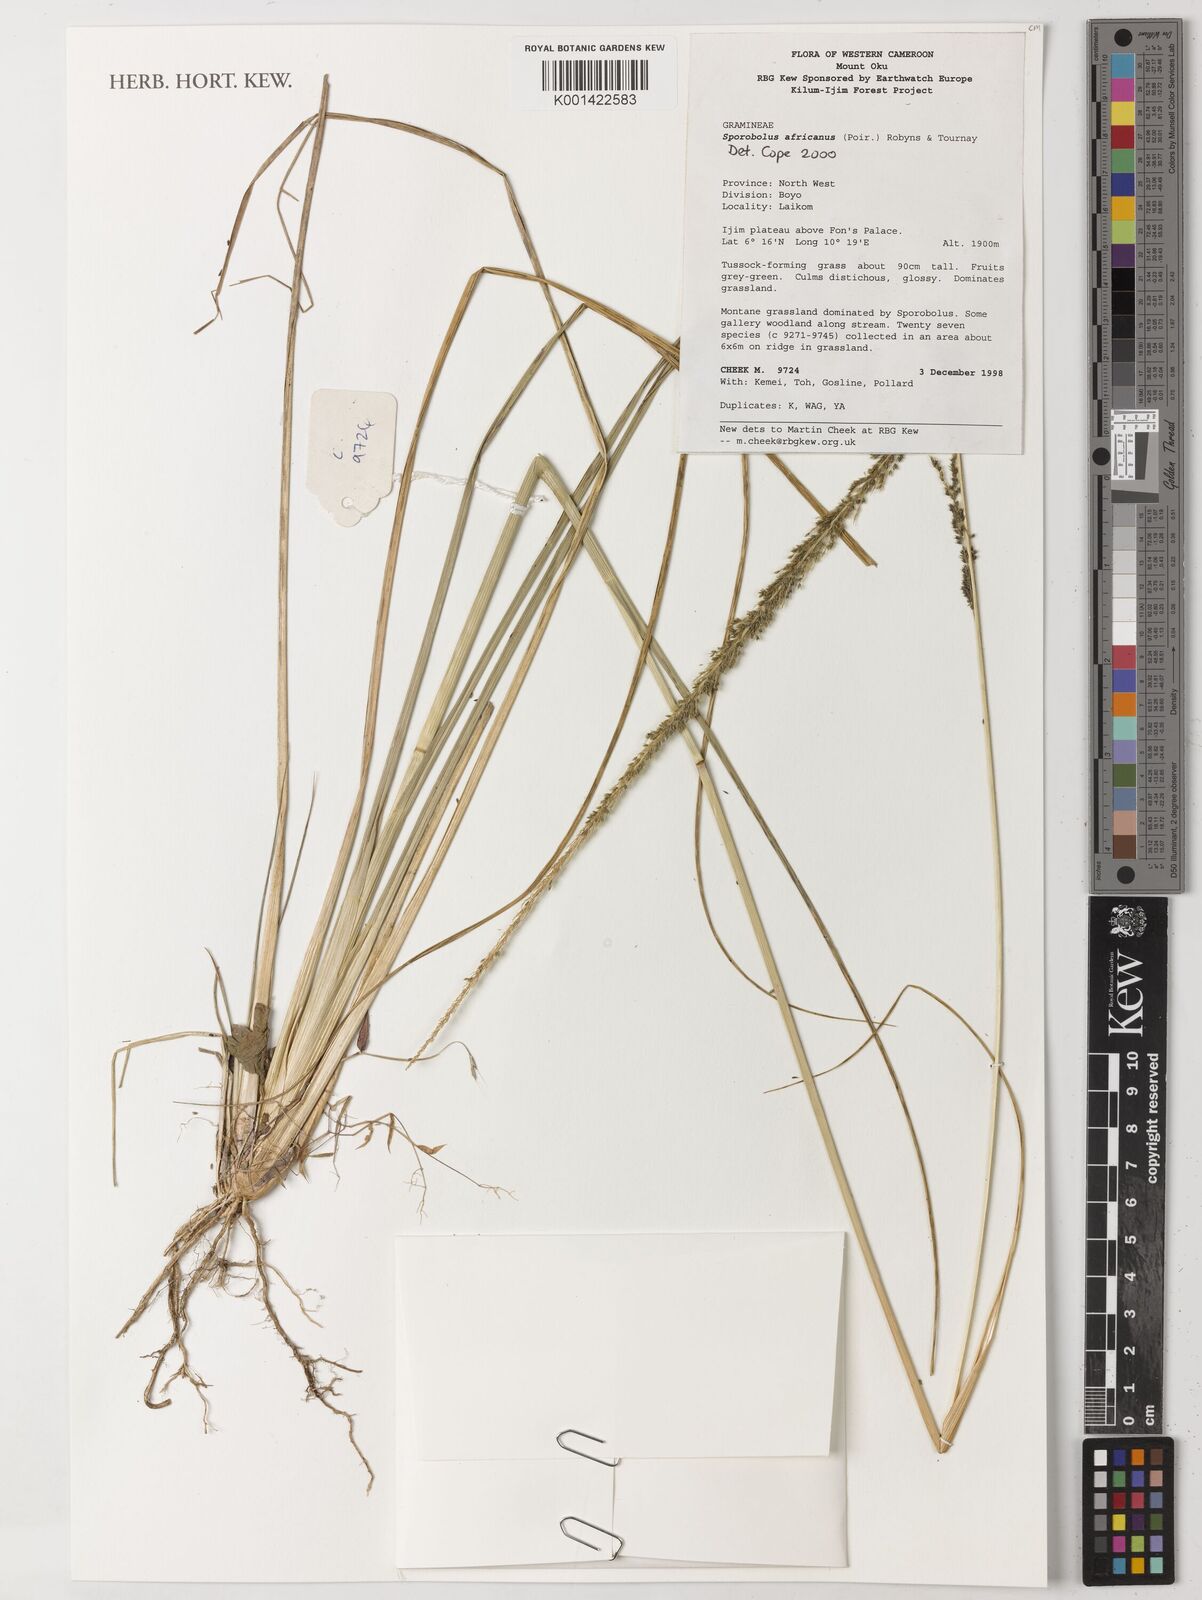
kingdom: Plantae
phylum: Tracheophyta
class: Liliopsida
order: Poales
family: Poaceae
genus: Sporobolus
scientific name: Sporobolus africanus
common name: African dropseed
